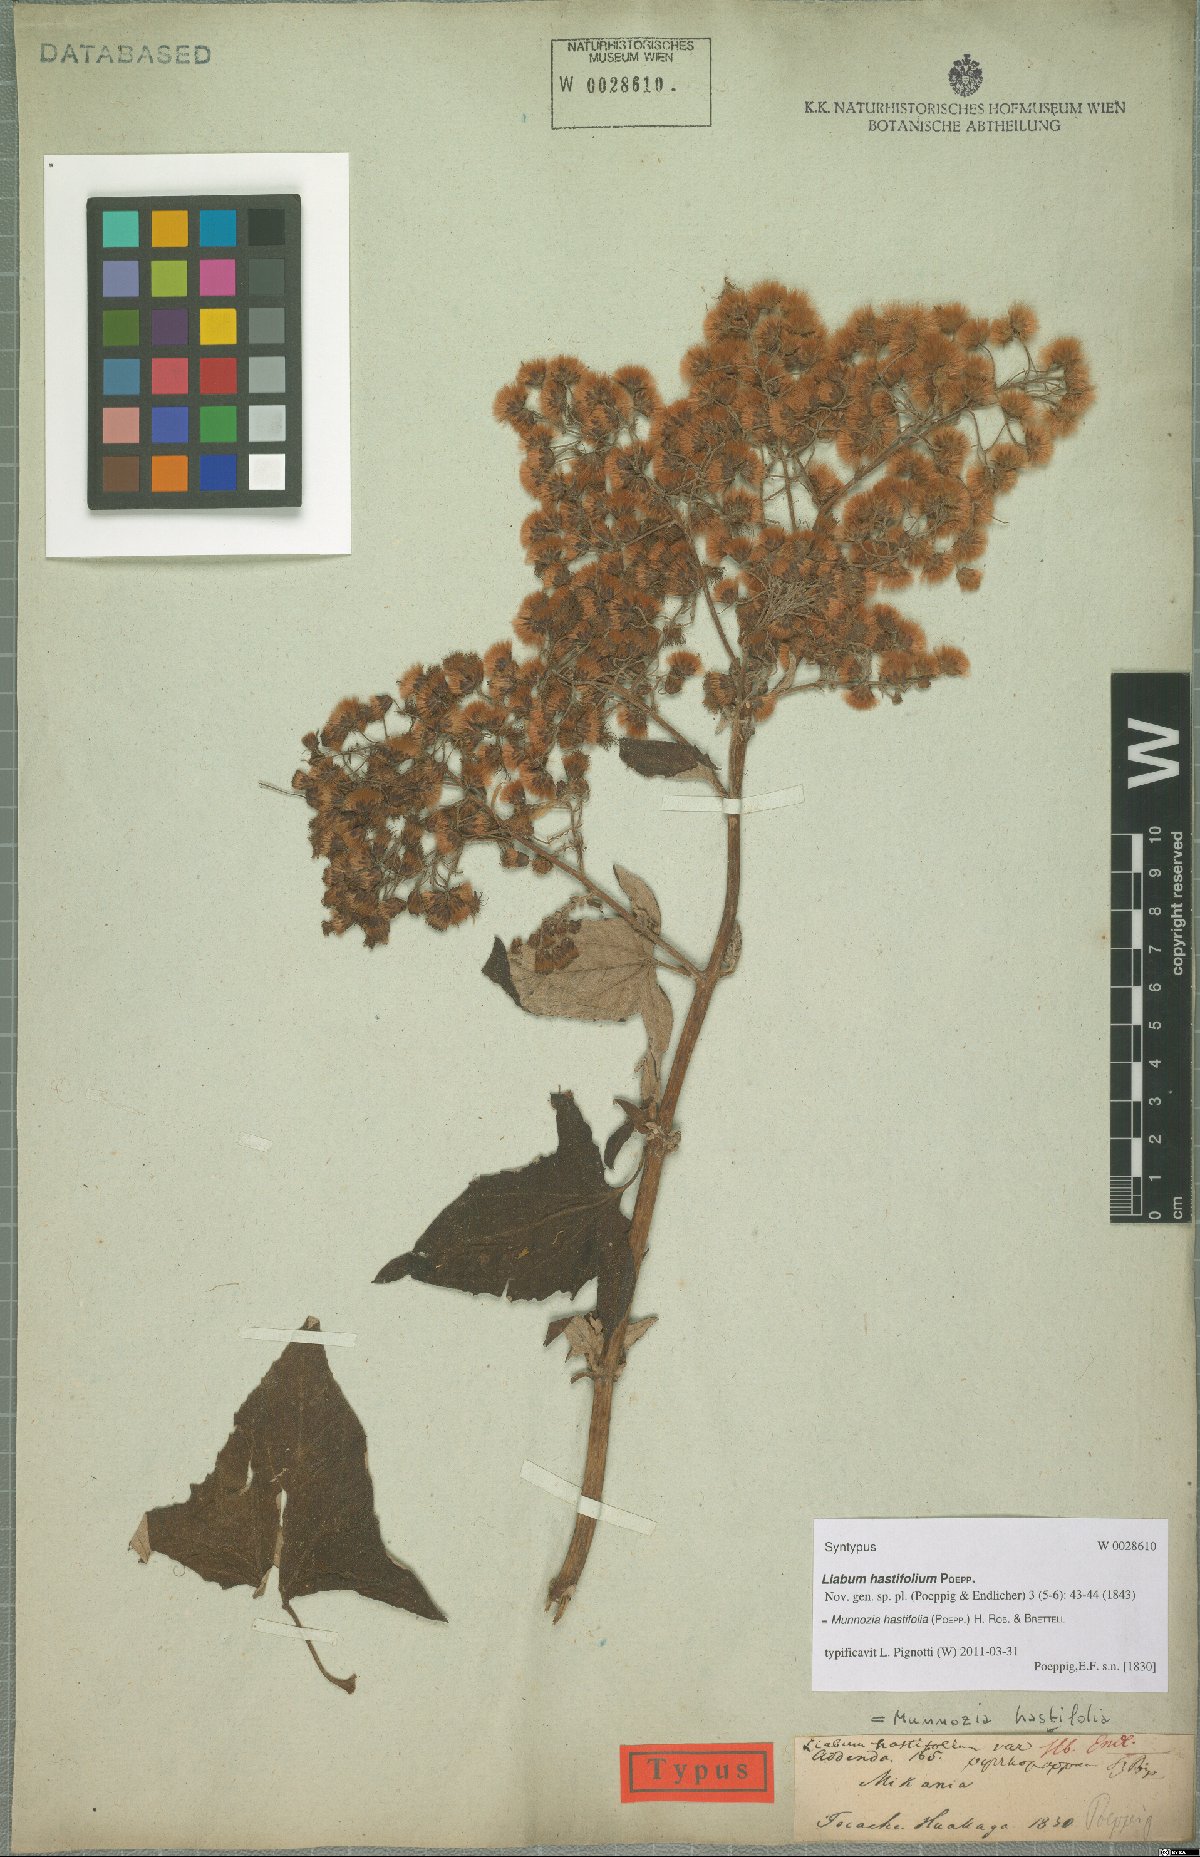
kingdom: Plantae
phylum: Tracheophyta
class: Magnoliopsida
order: Asterales
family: Asteraceae
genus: Munnozia
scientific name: Munnozia hastifolia
